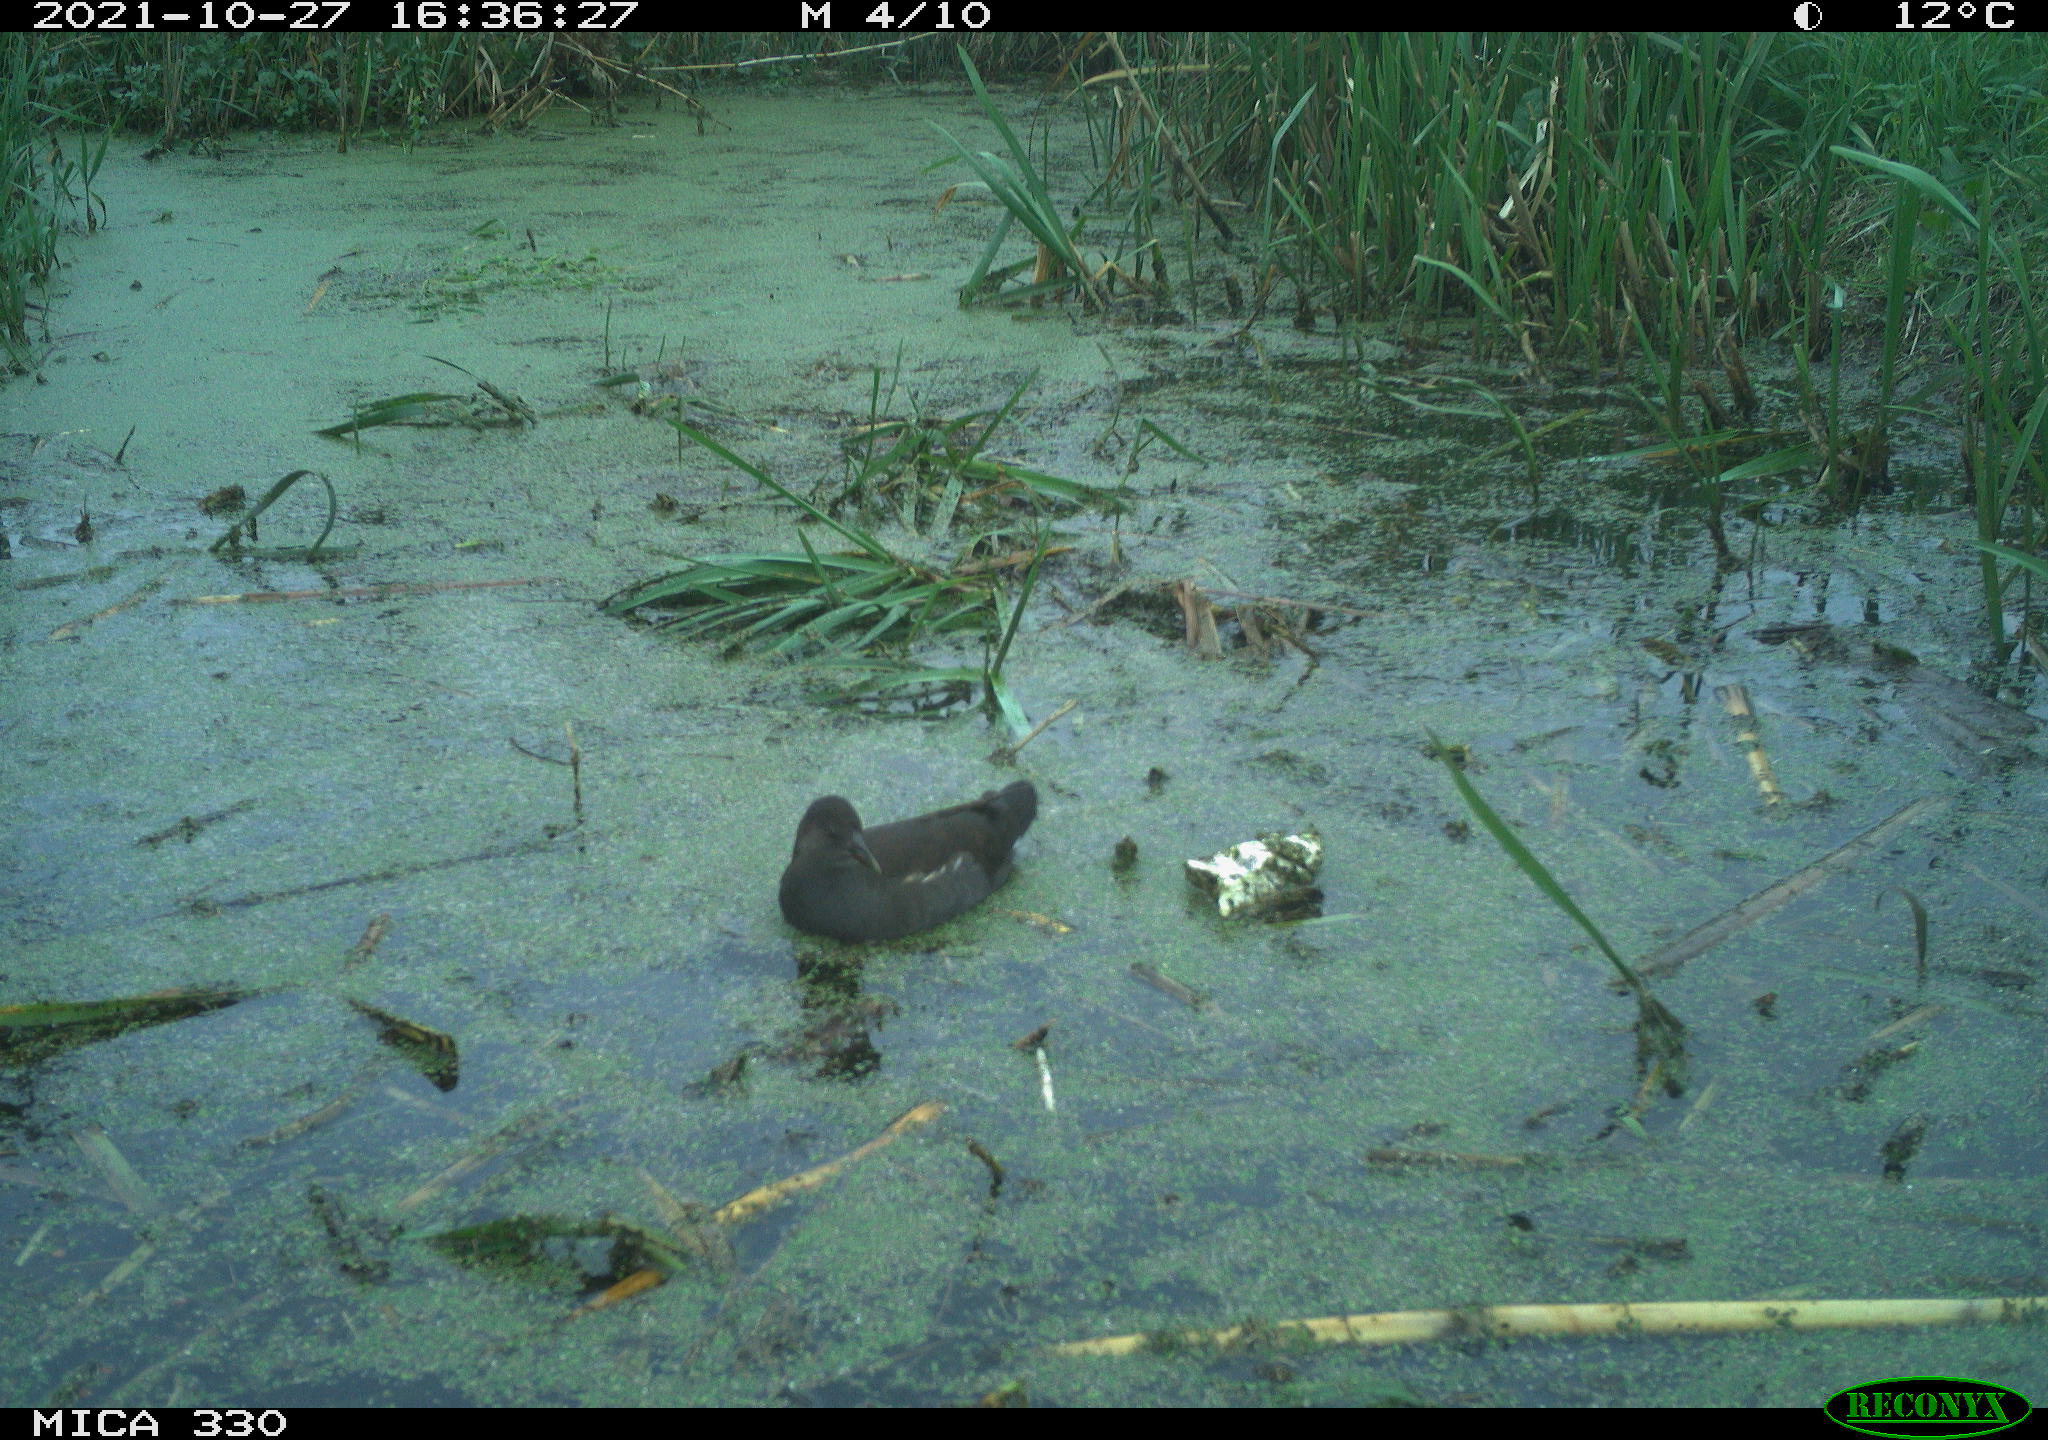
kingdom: Animalia
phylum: Chordata
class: Aves
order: Gruiformes
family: Rallidae
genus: Gallinula
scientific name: Gallinula chloropus
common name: Common moorhen
